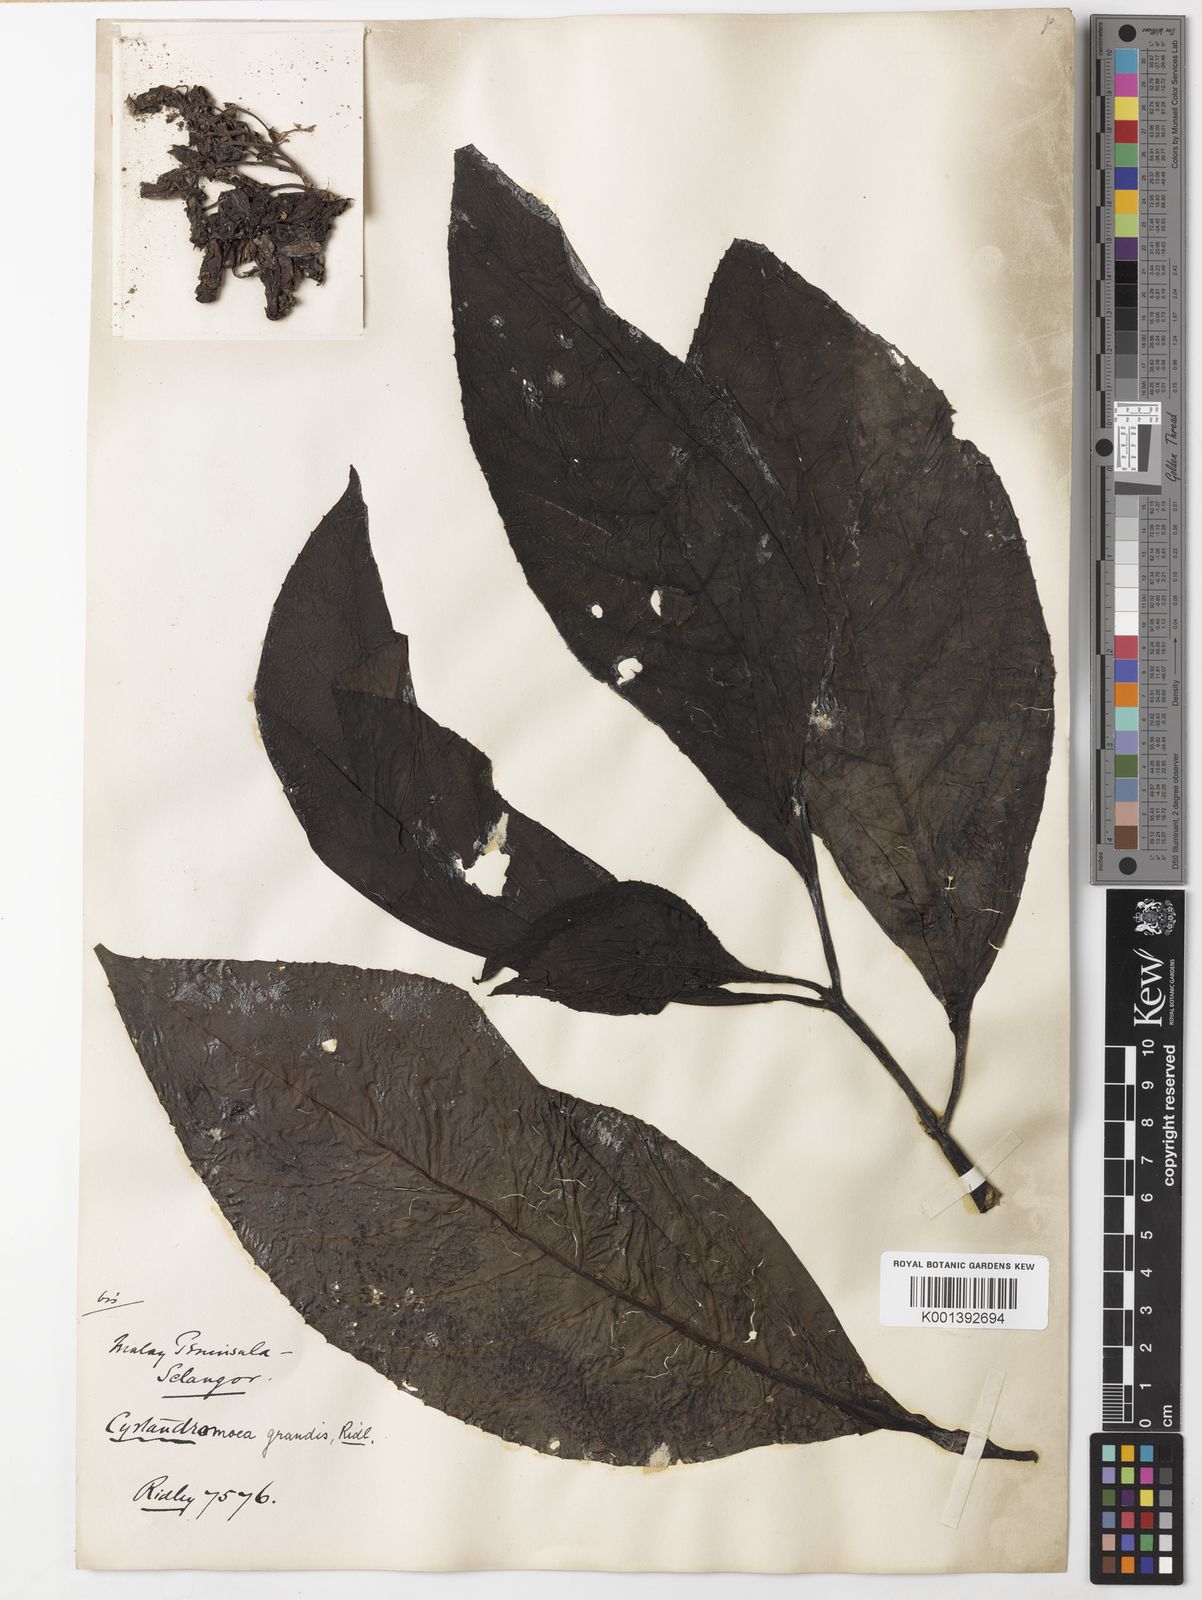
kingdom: Plantae
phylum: Tracheophyta
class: Magnoliopsida
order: Lamiales
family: Phrymaceae
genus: Cyrtandromoea
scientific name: Cyrtandromoea grandis
